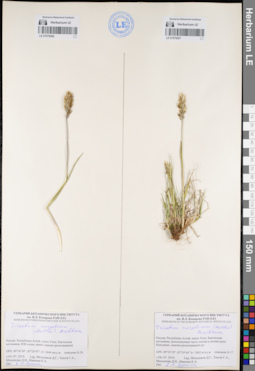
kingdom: Plantae
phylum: Tracheophyta
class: Liliopsida
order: Poales
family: Poaceae
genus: Koeleria
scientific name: Koeleria spicata
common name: Mountain trisetum
